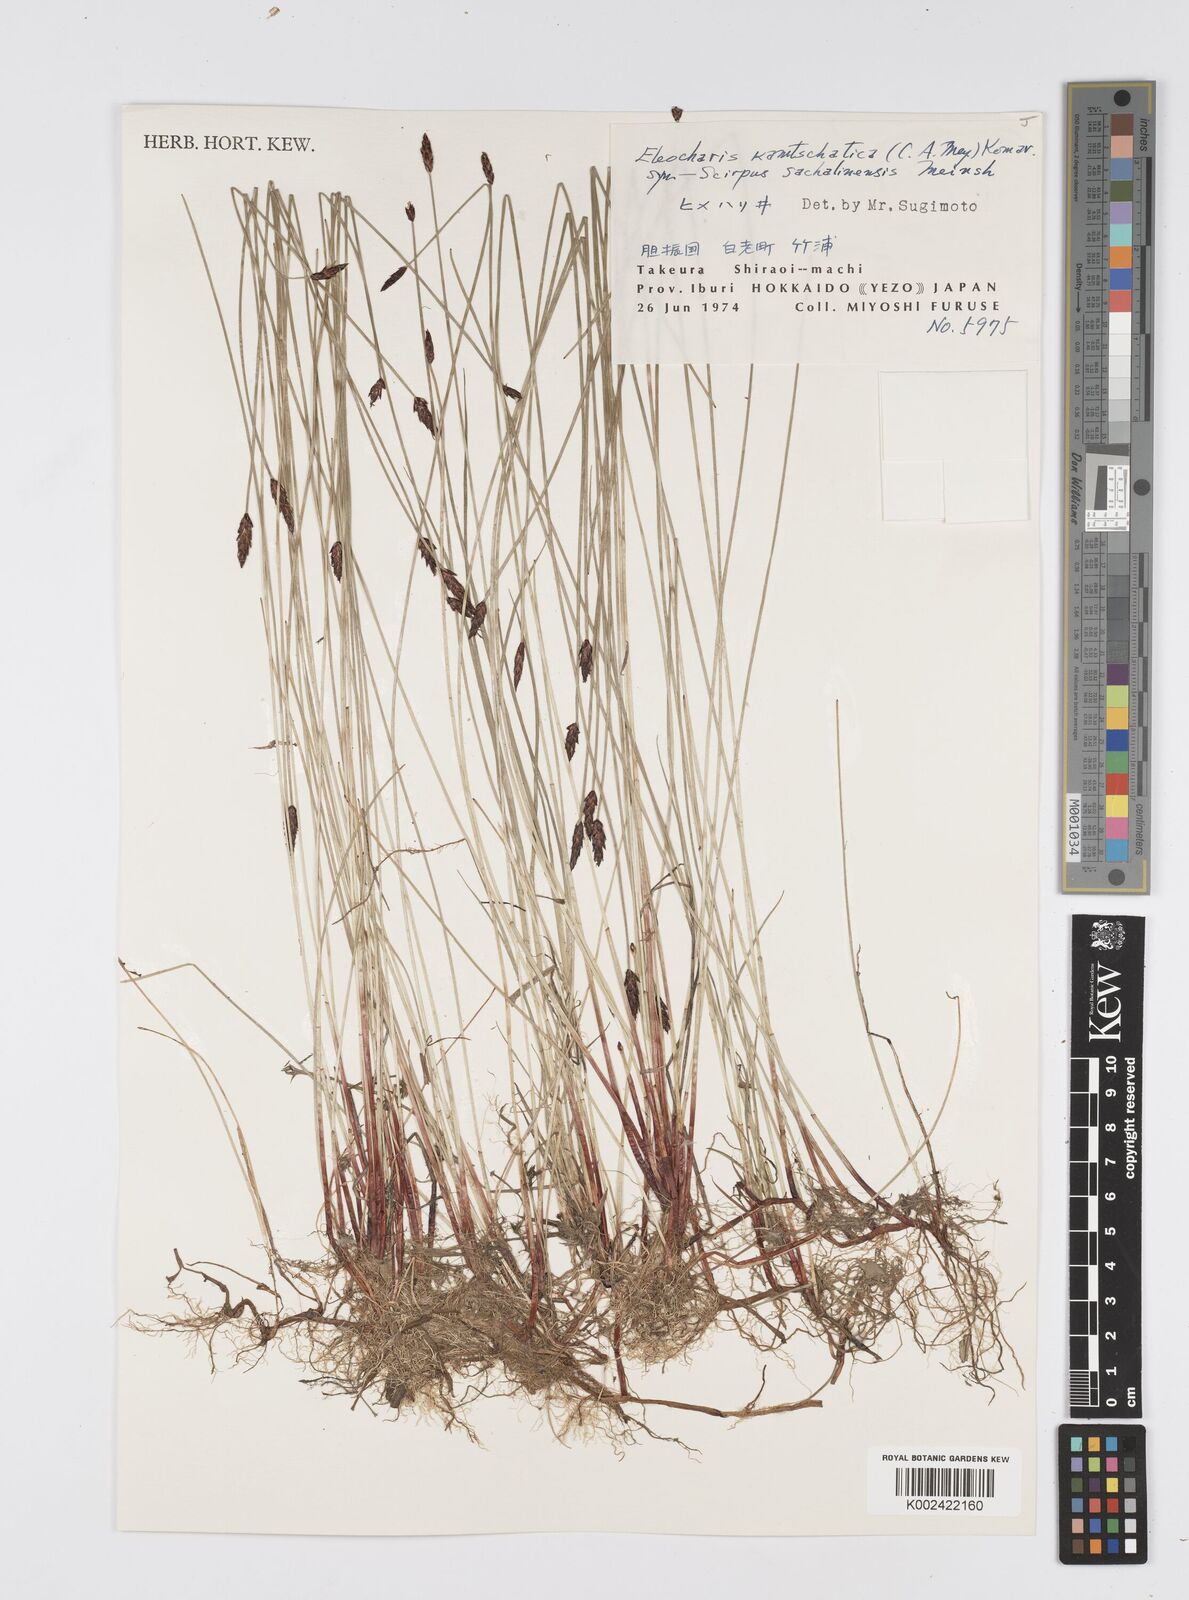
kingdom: Plantae
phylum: Tracheophyta
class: Liliopsida
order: Poales
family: Cyperaceae
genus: Eleocharis
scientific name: Eleocharis kamtschatica
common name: Kamchatka spikerush
